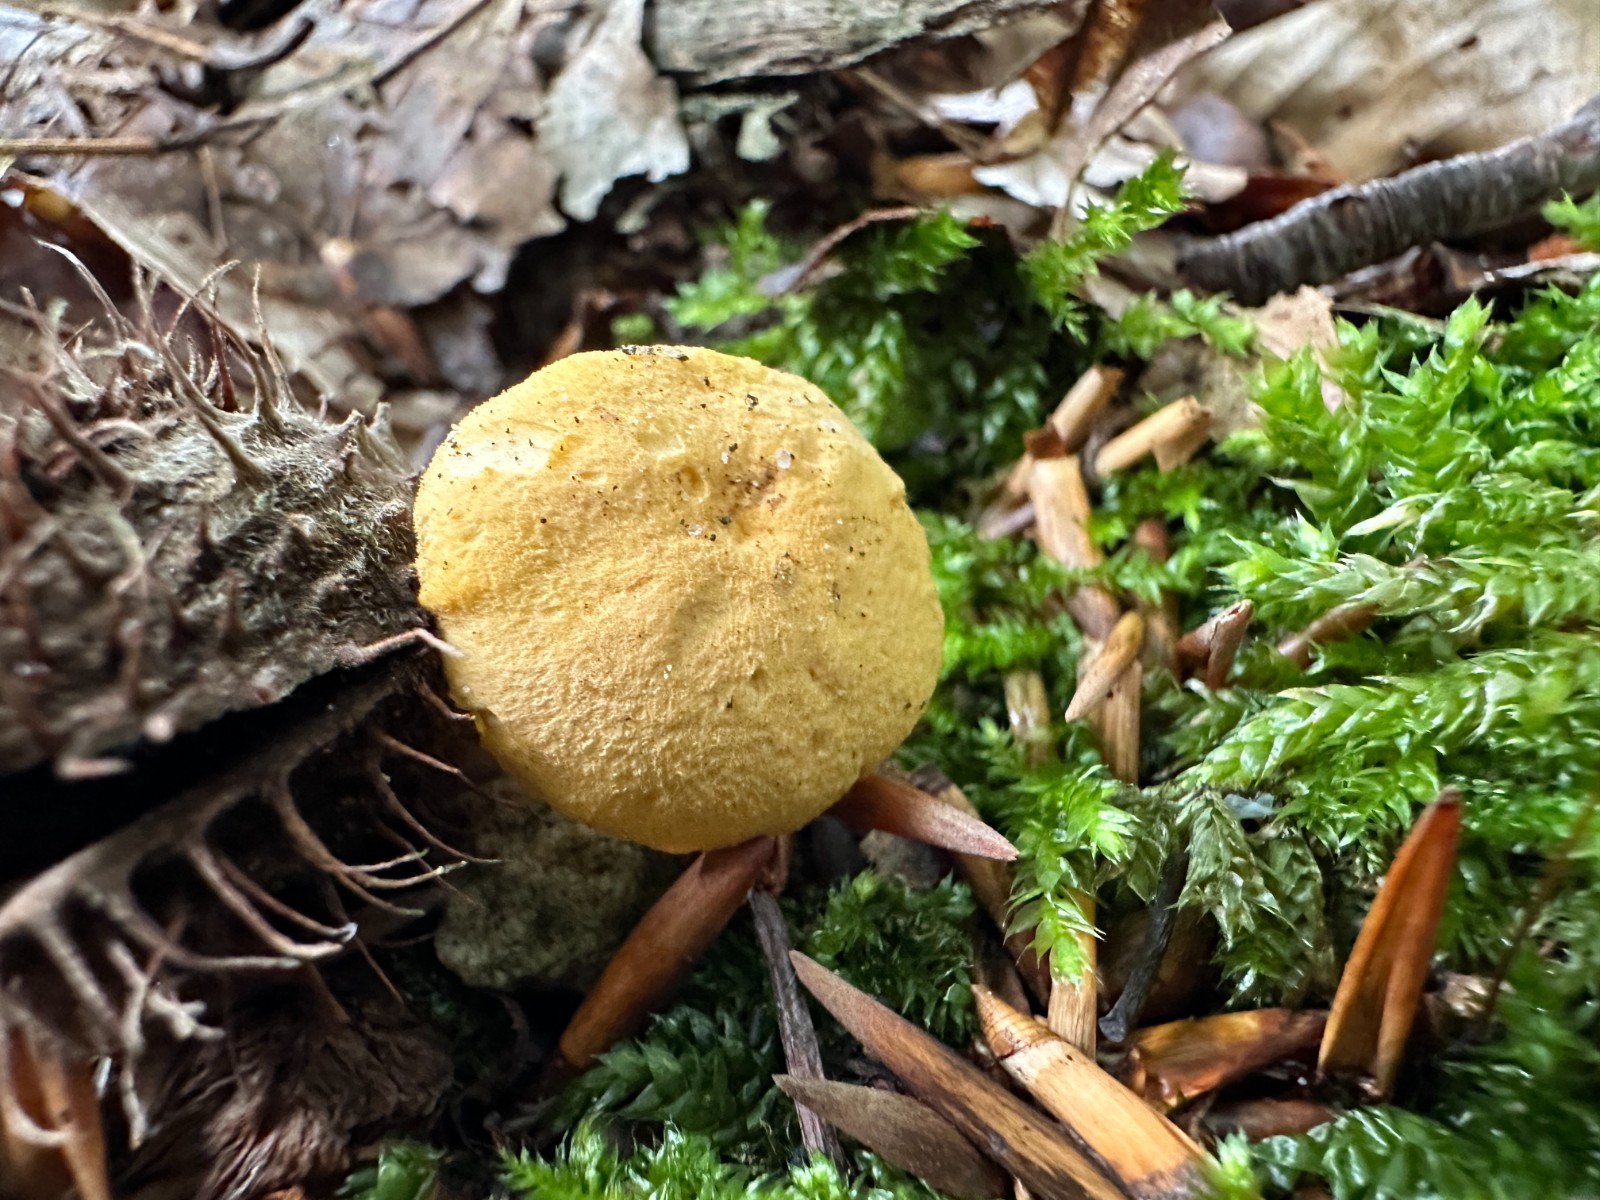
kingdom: Fungi
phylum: Basidiomycota
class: Agaricomycetes
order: Cantharellales
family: Hydnaceae
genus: Cantharellus
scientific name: Cantharellus amethysteus
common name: ametyst-kantarel
